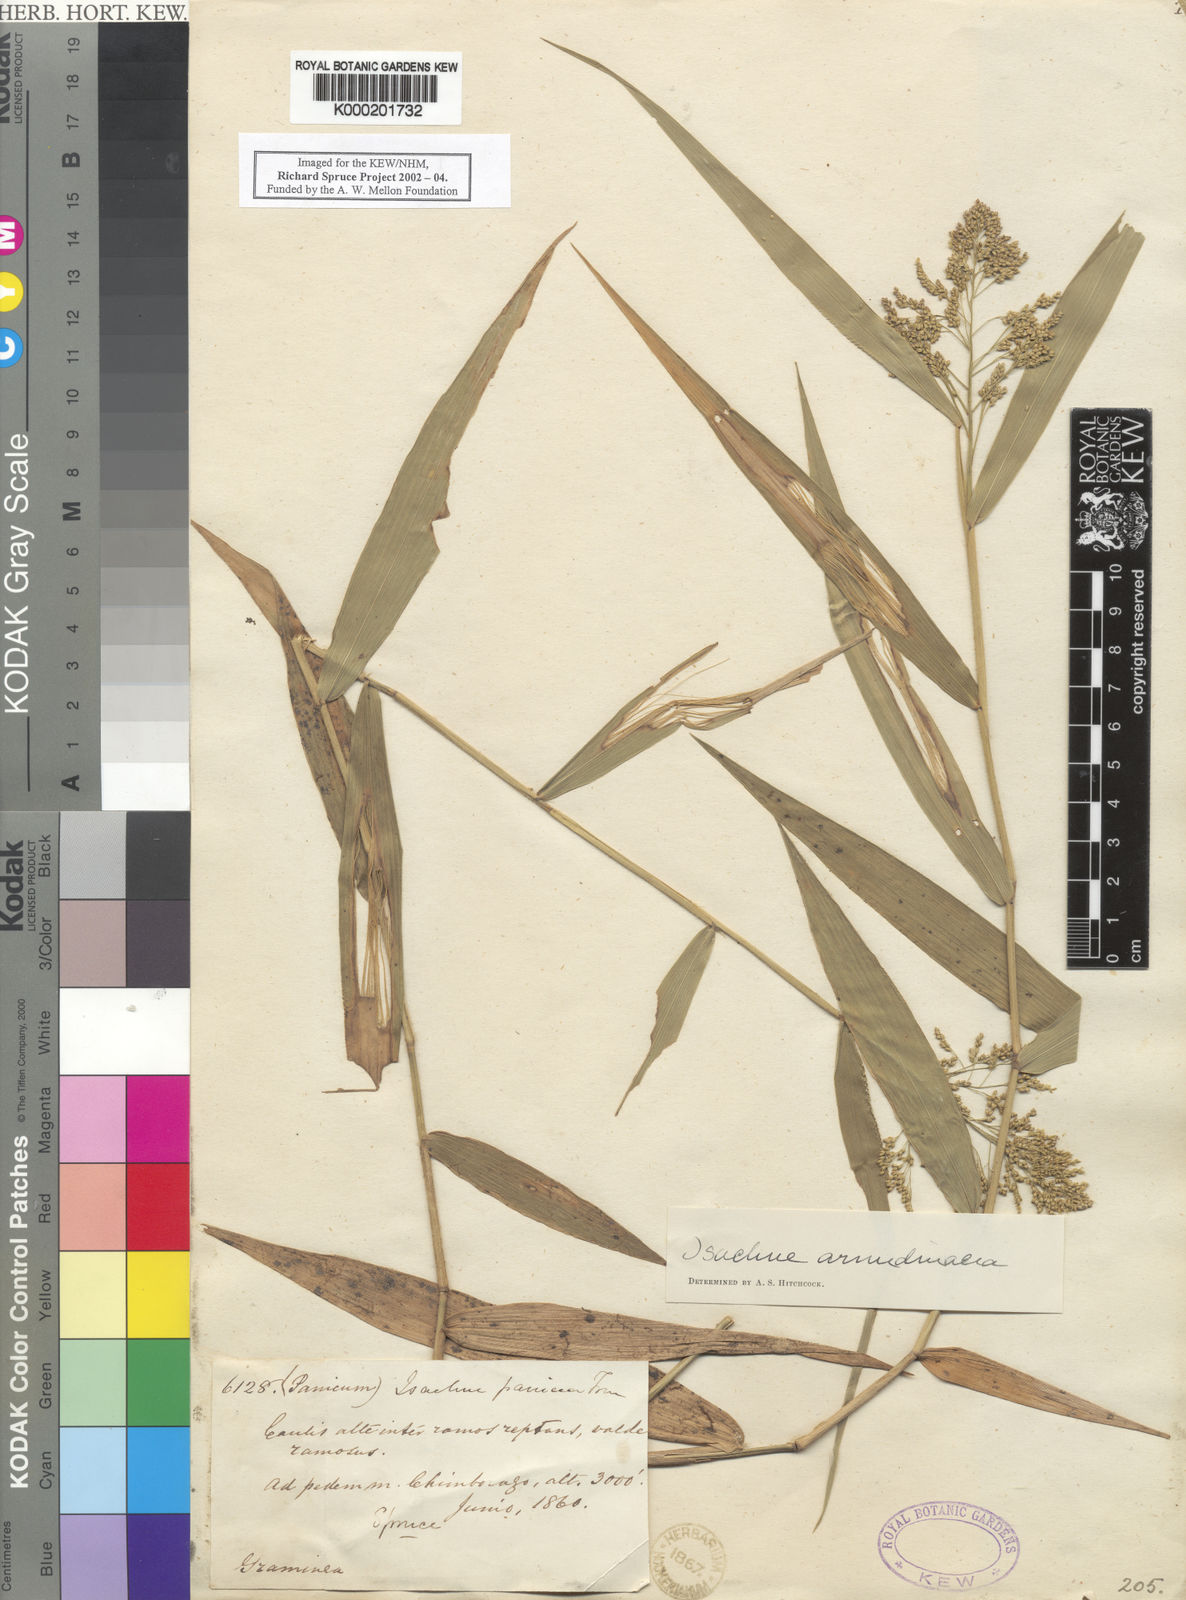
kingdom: Plantae
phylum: Tracheophyta
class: Liliopsida
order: Poales
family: Poaceae
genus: Isachne
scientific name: Isachne arundinacea
